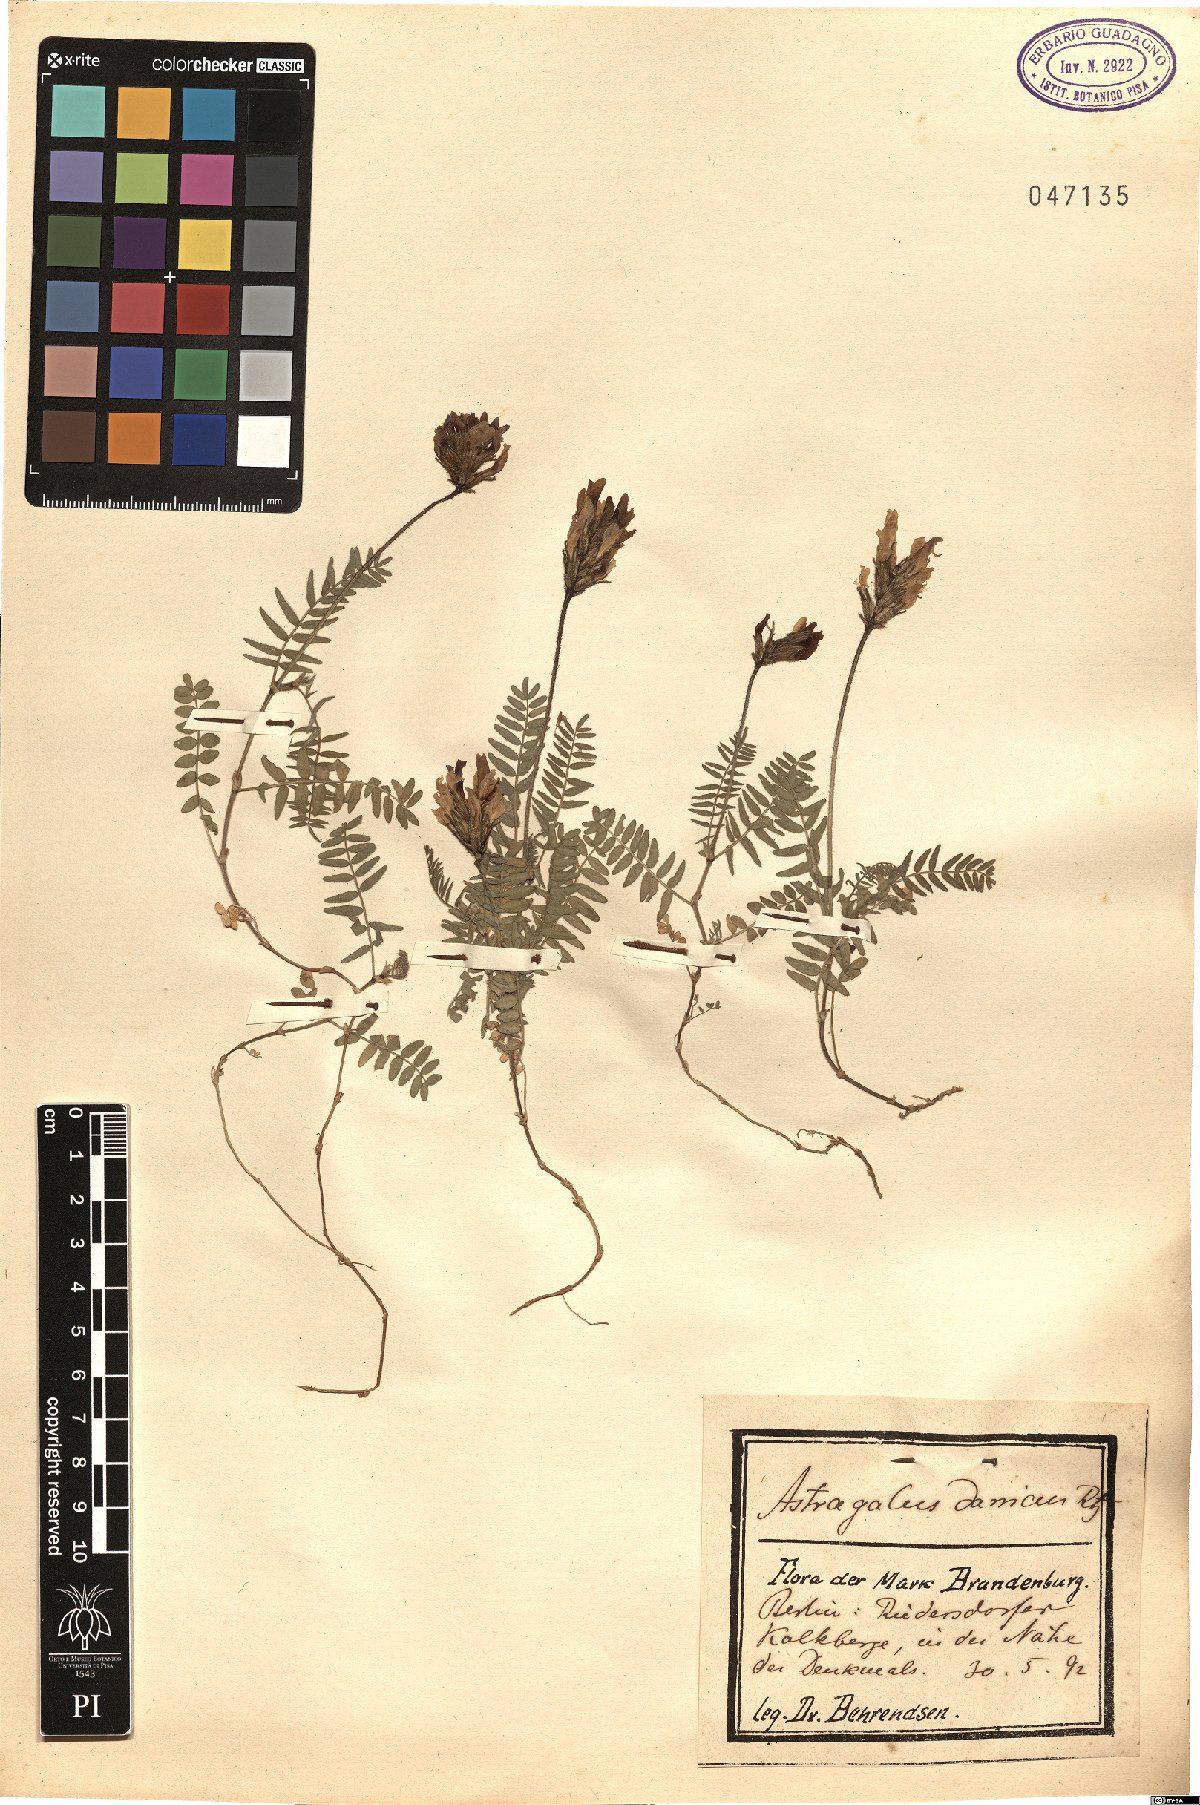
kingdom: Plantae
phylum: Tracheophyta
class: Magnoliopsida
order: Fabales
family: Fabaceae
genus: Astragalus
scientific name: Astragalus danicus
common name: Purple milk-vetch
